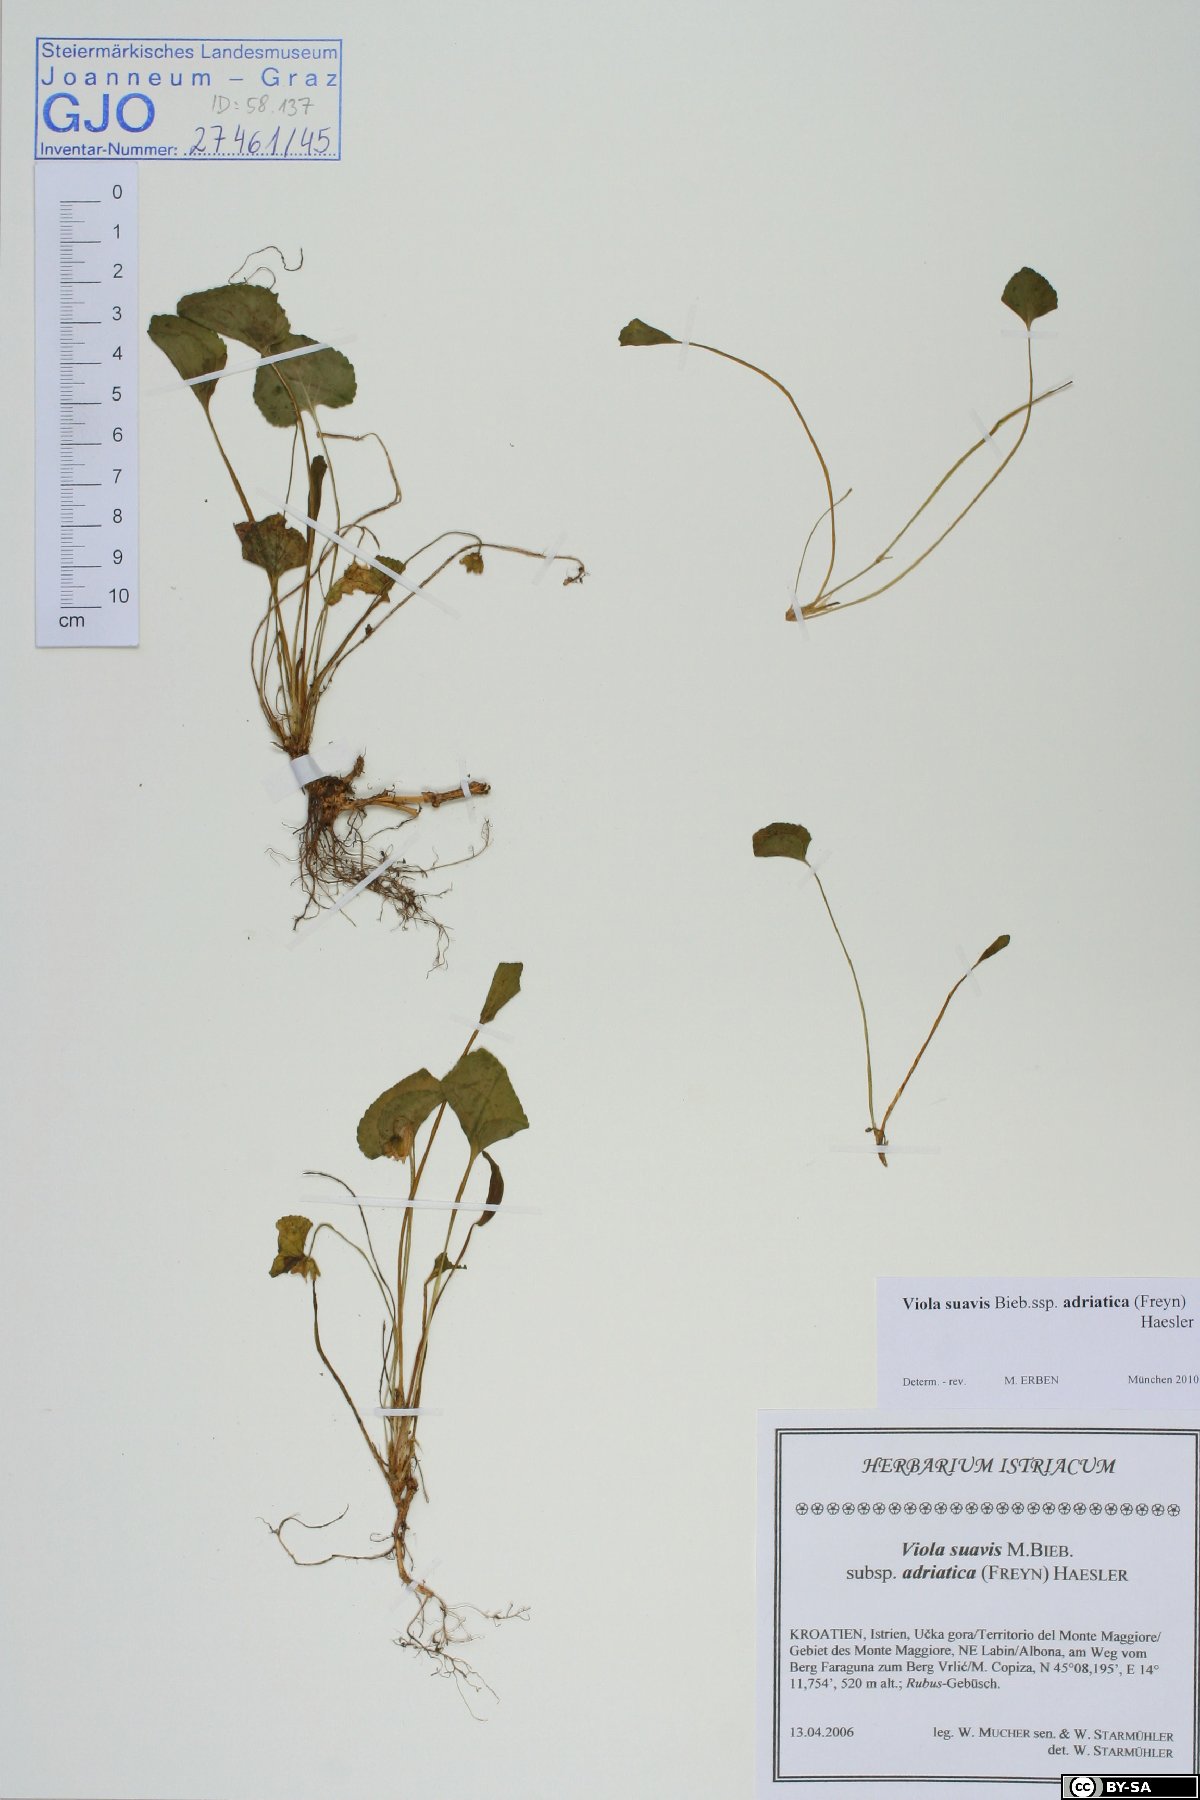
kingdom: Plantae
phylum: Tracheophyta
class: Magnoliopsida
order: Malpighiales
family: Violaceae
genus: Viola
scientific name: Viola suavis
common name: Russian violet
